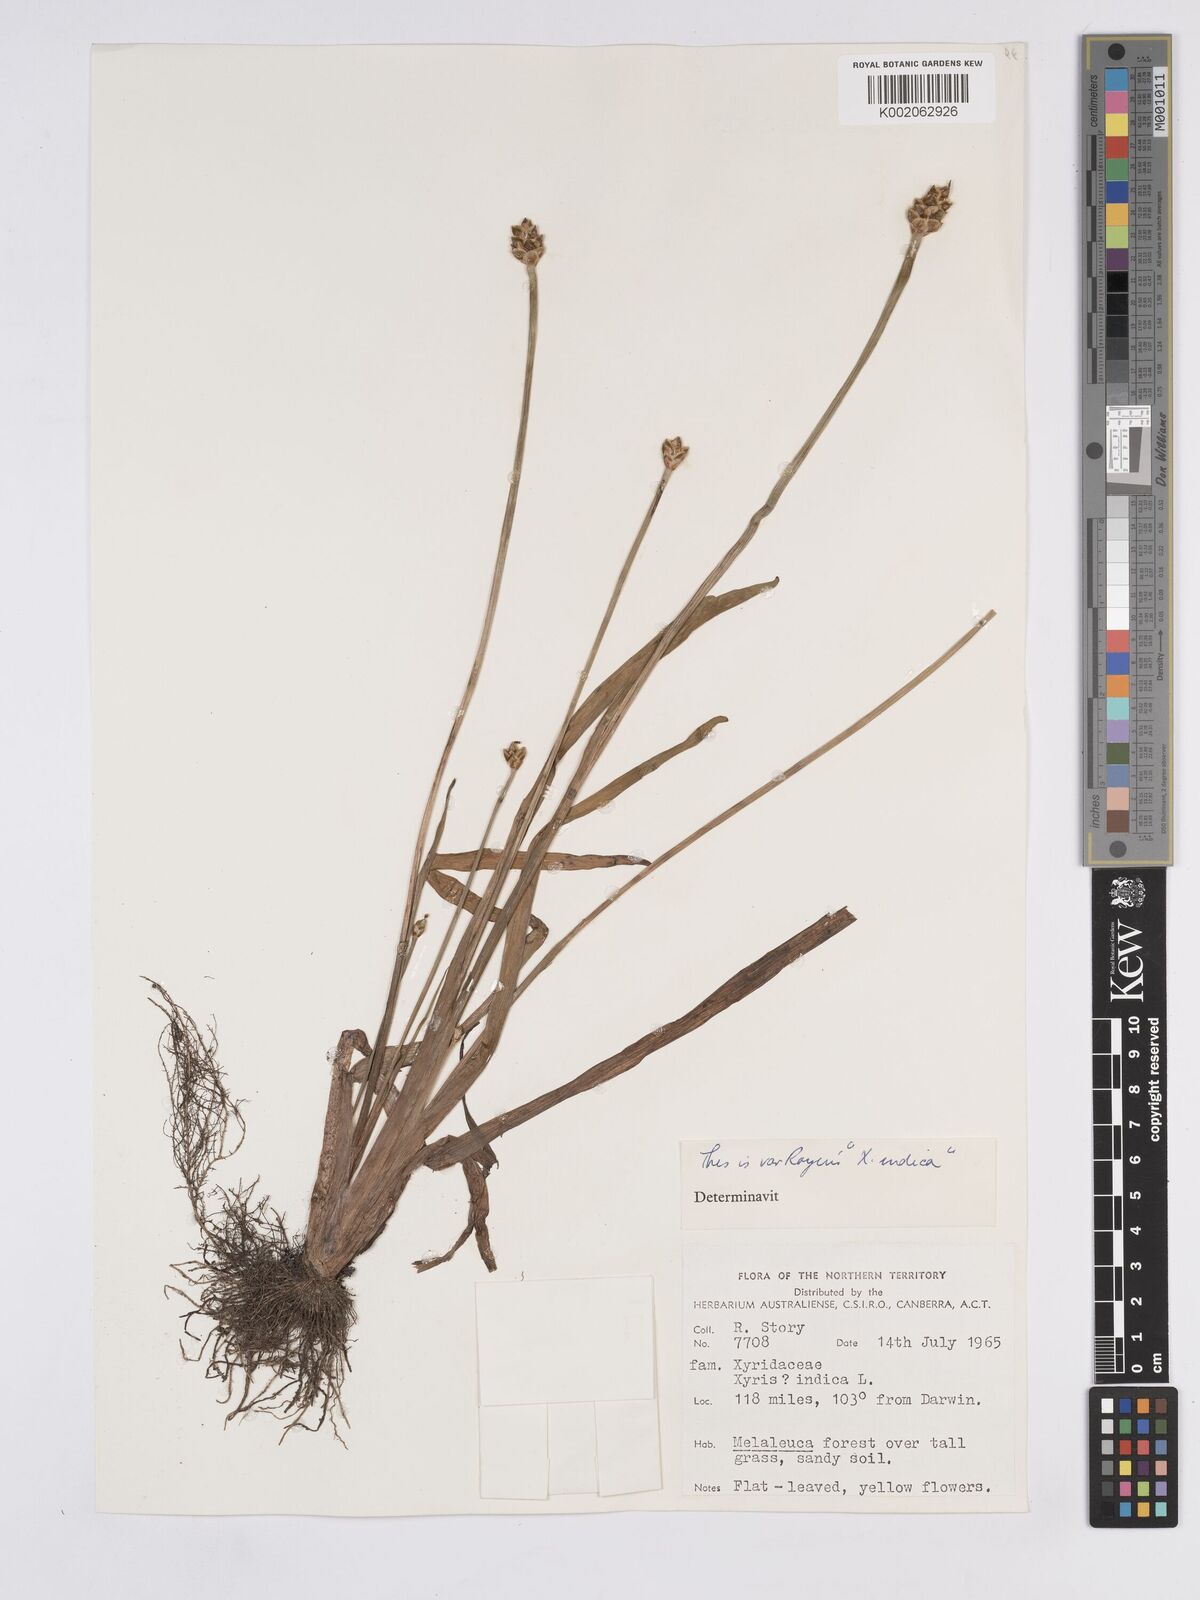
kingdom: Plantae
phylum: Tracheophyta
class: Liliopsida
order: Poales
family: Xyridaceae
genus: Xyris
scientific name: Xyris indica
